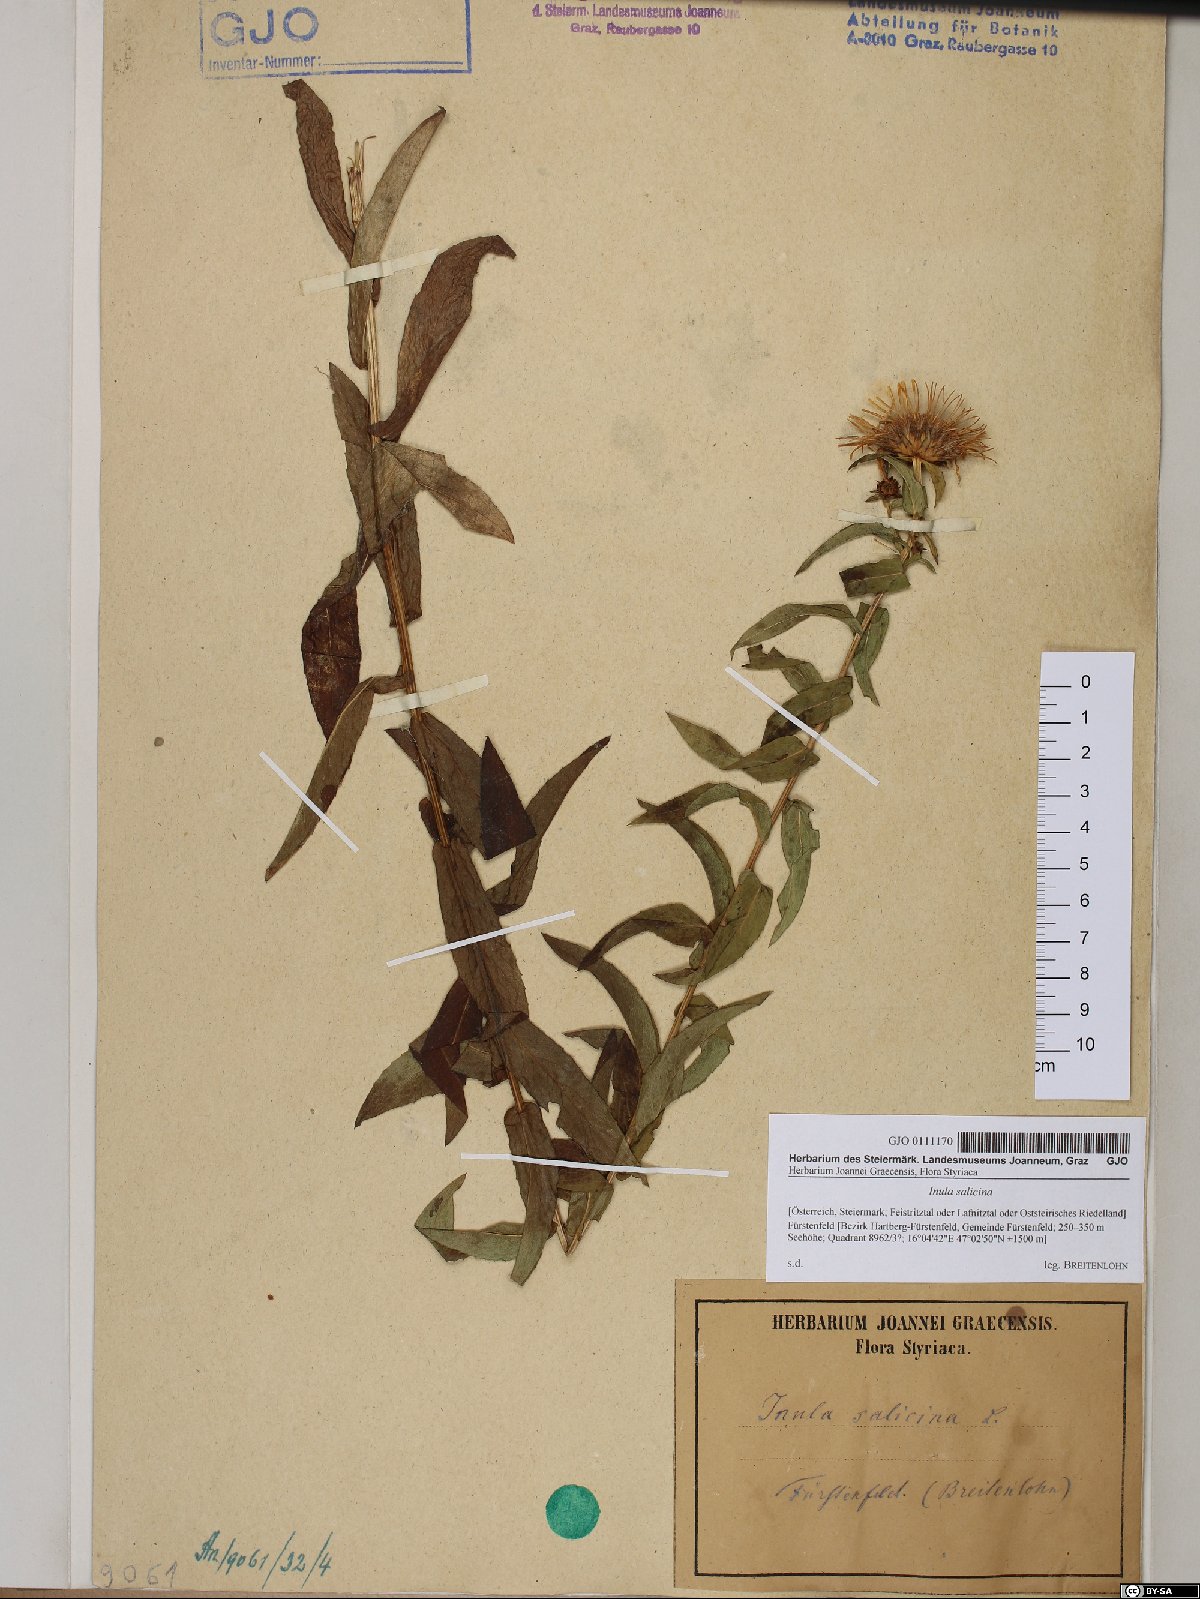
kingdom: Plantae
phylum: Tracheophyta
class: Magnoliopsida
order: Asterales
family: Asteraceae
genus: Pentanema
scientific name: Pentanema salicinum
